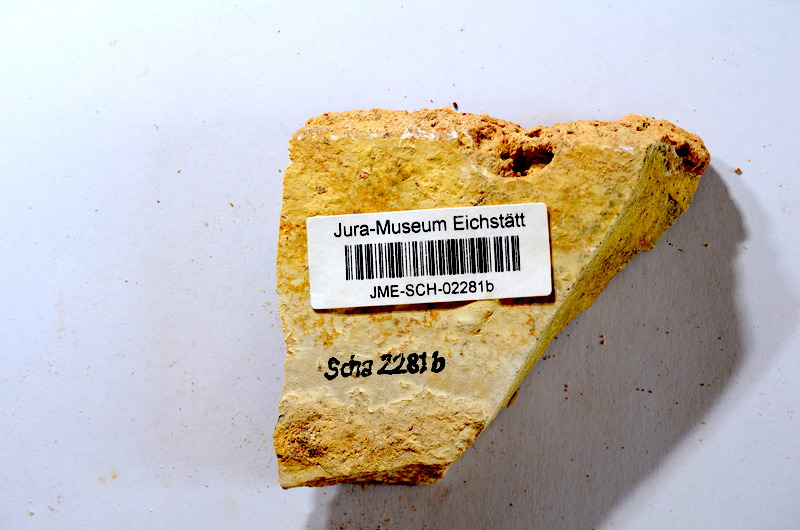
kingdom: Animalia
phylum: Chordata
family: Ascalaboidae
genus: Tharsis
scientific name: Tharsis dubius
